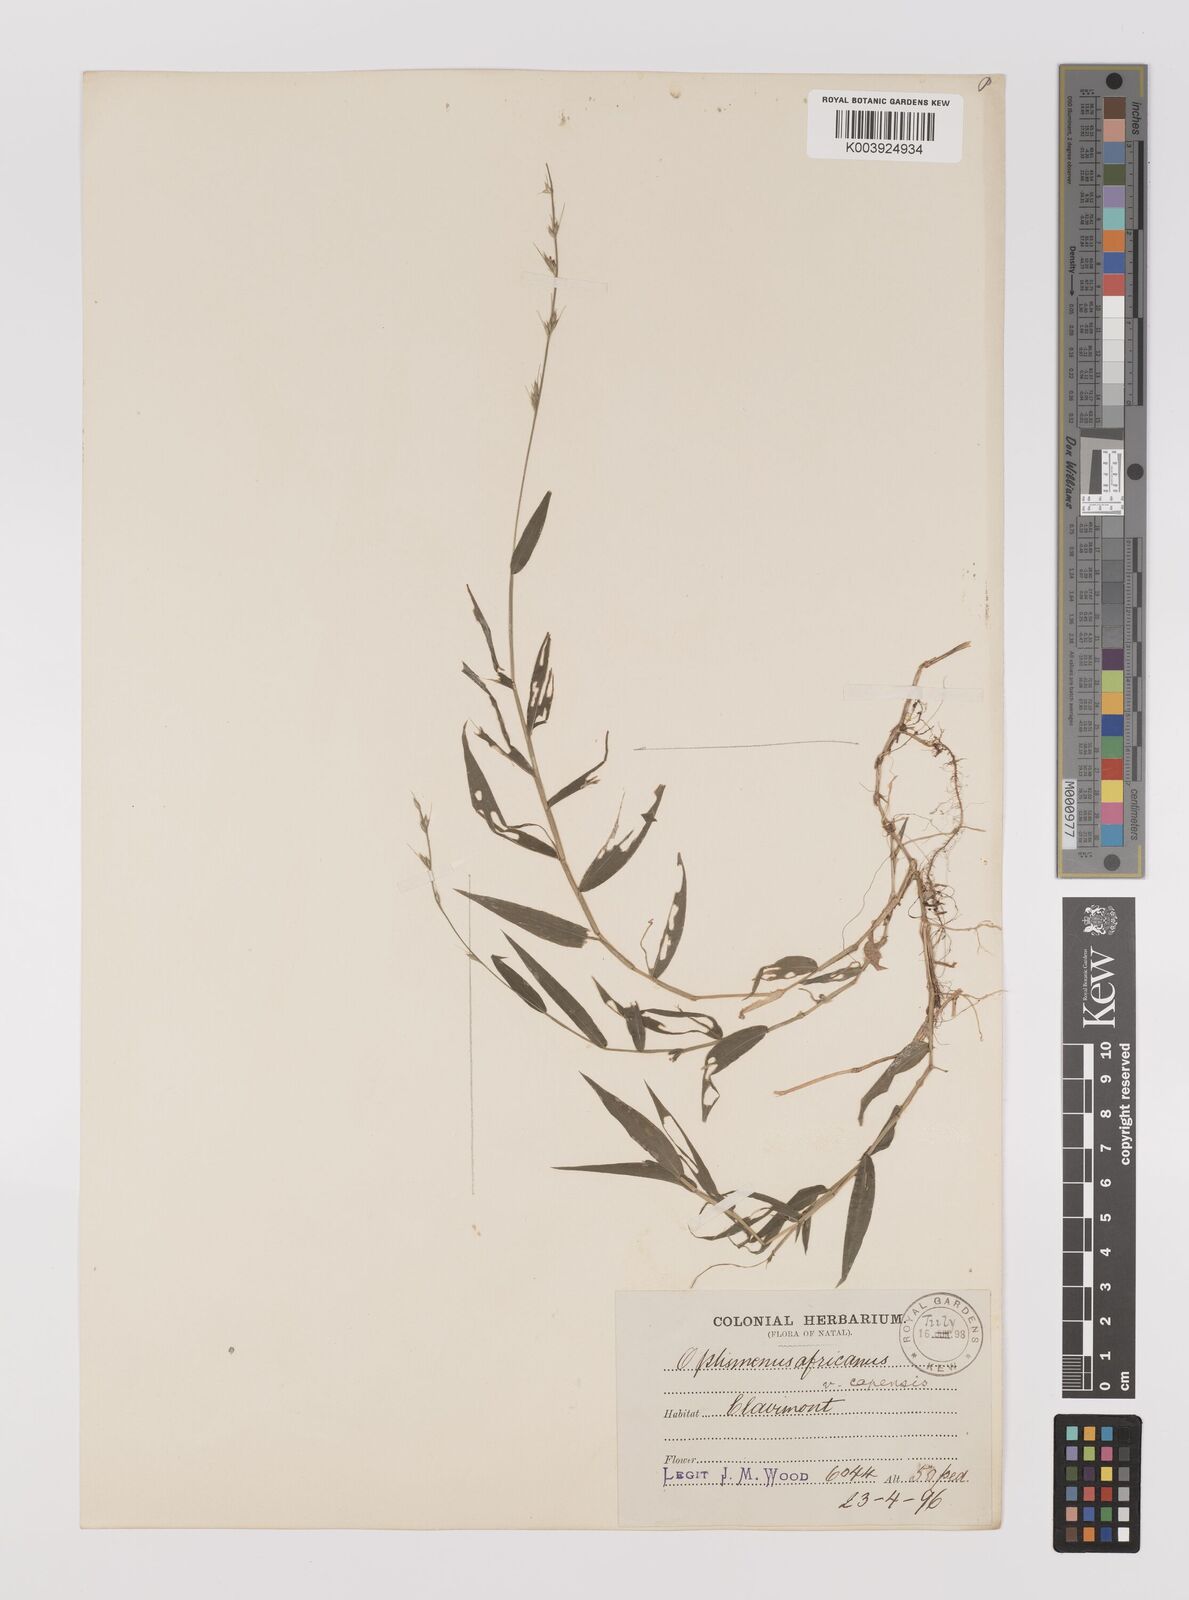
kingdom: Plantae
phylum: Tracheophyta
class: Liliopsida
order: Poales
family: Poaceae
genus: Oplismenus
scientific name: Oplismenus undulatifolius
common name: Wavyleaf basketgrass
